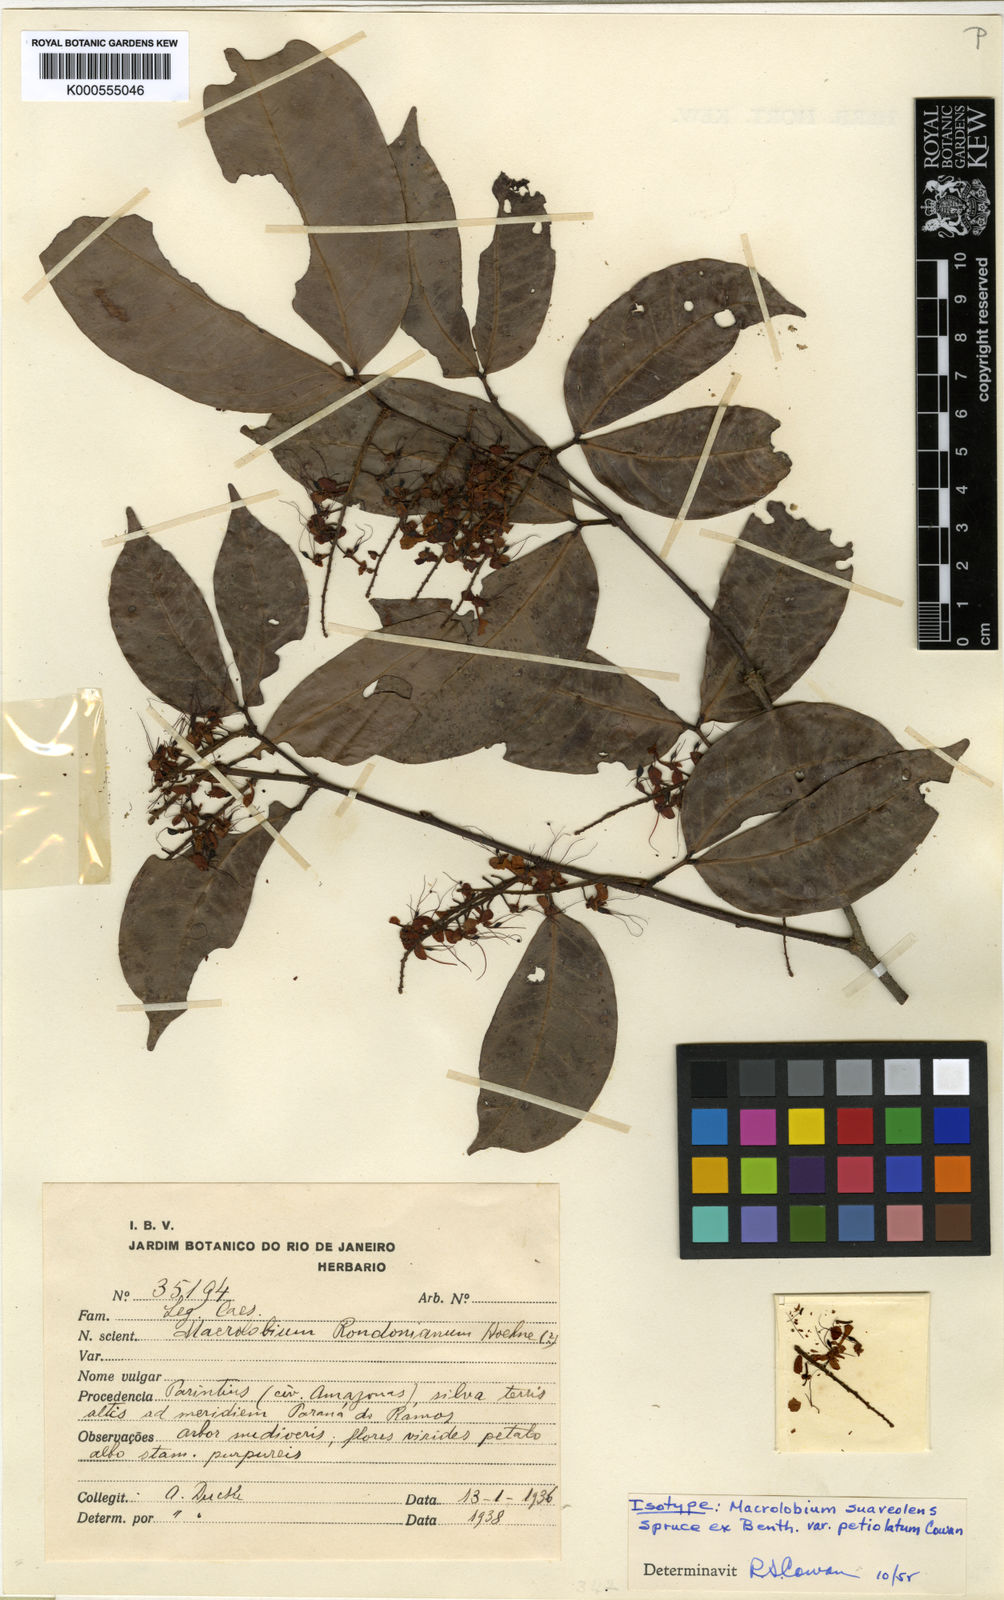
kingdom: Plantae
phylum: Tracheophyta
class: Magnoliopsida
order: Fabales
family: Fabaceae
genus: Macrolobium
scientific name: Macrolobium suaveolens
